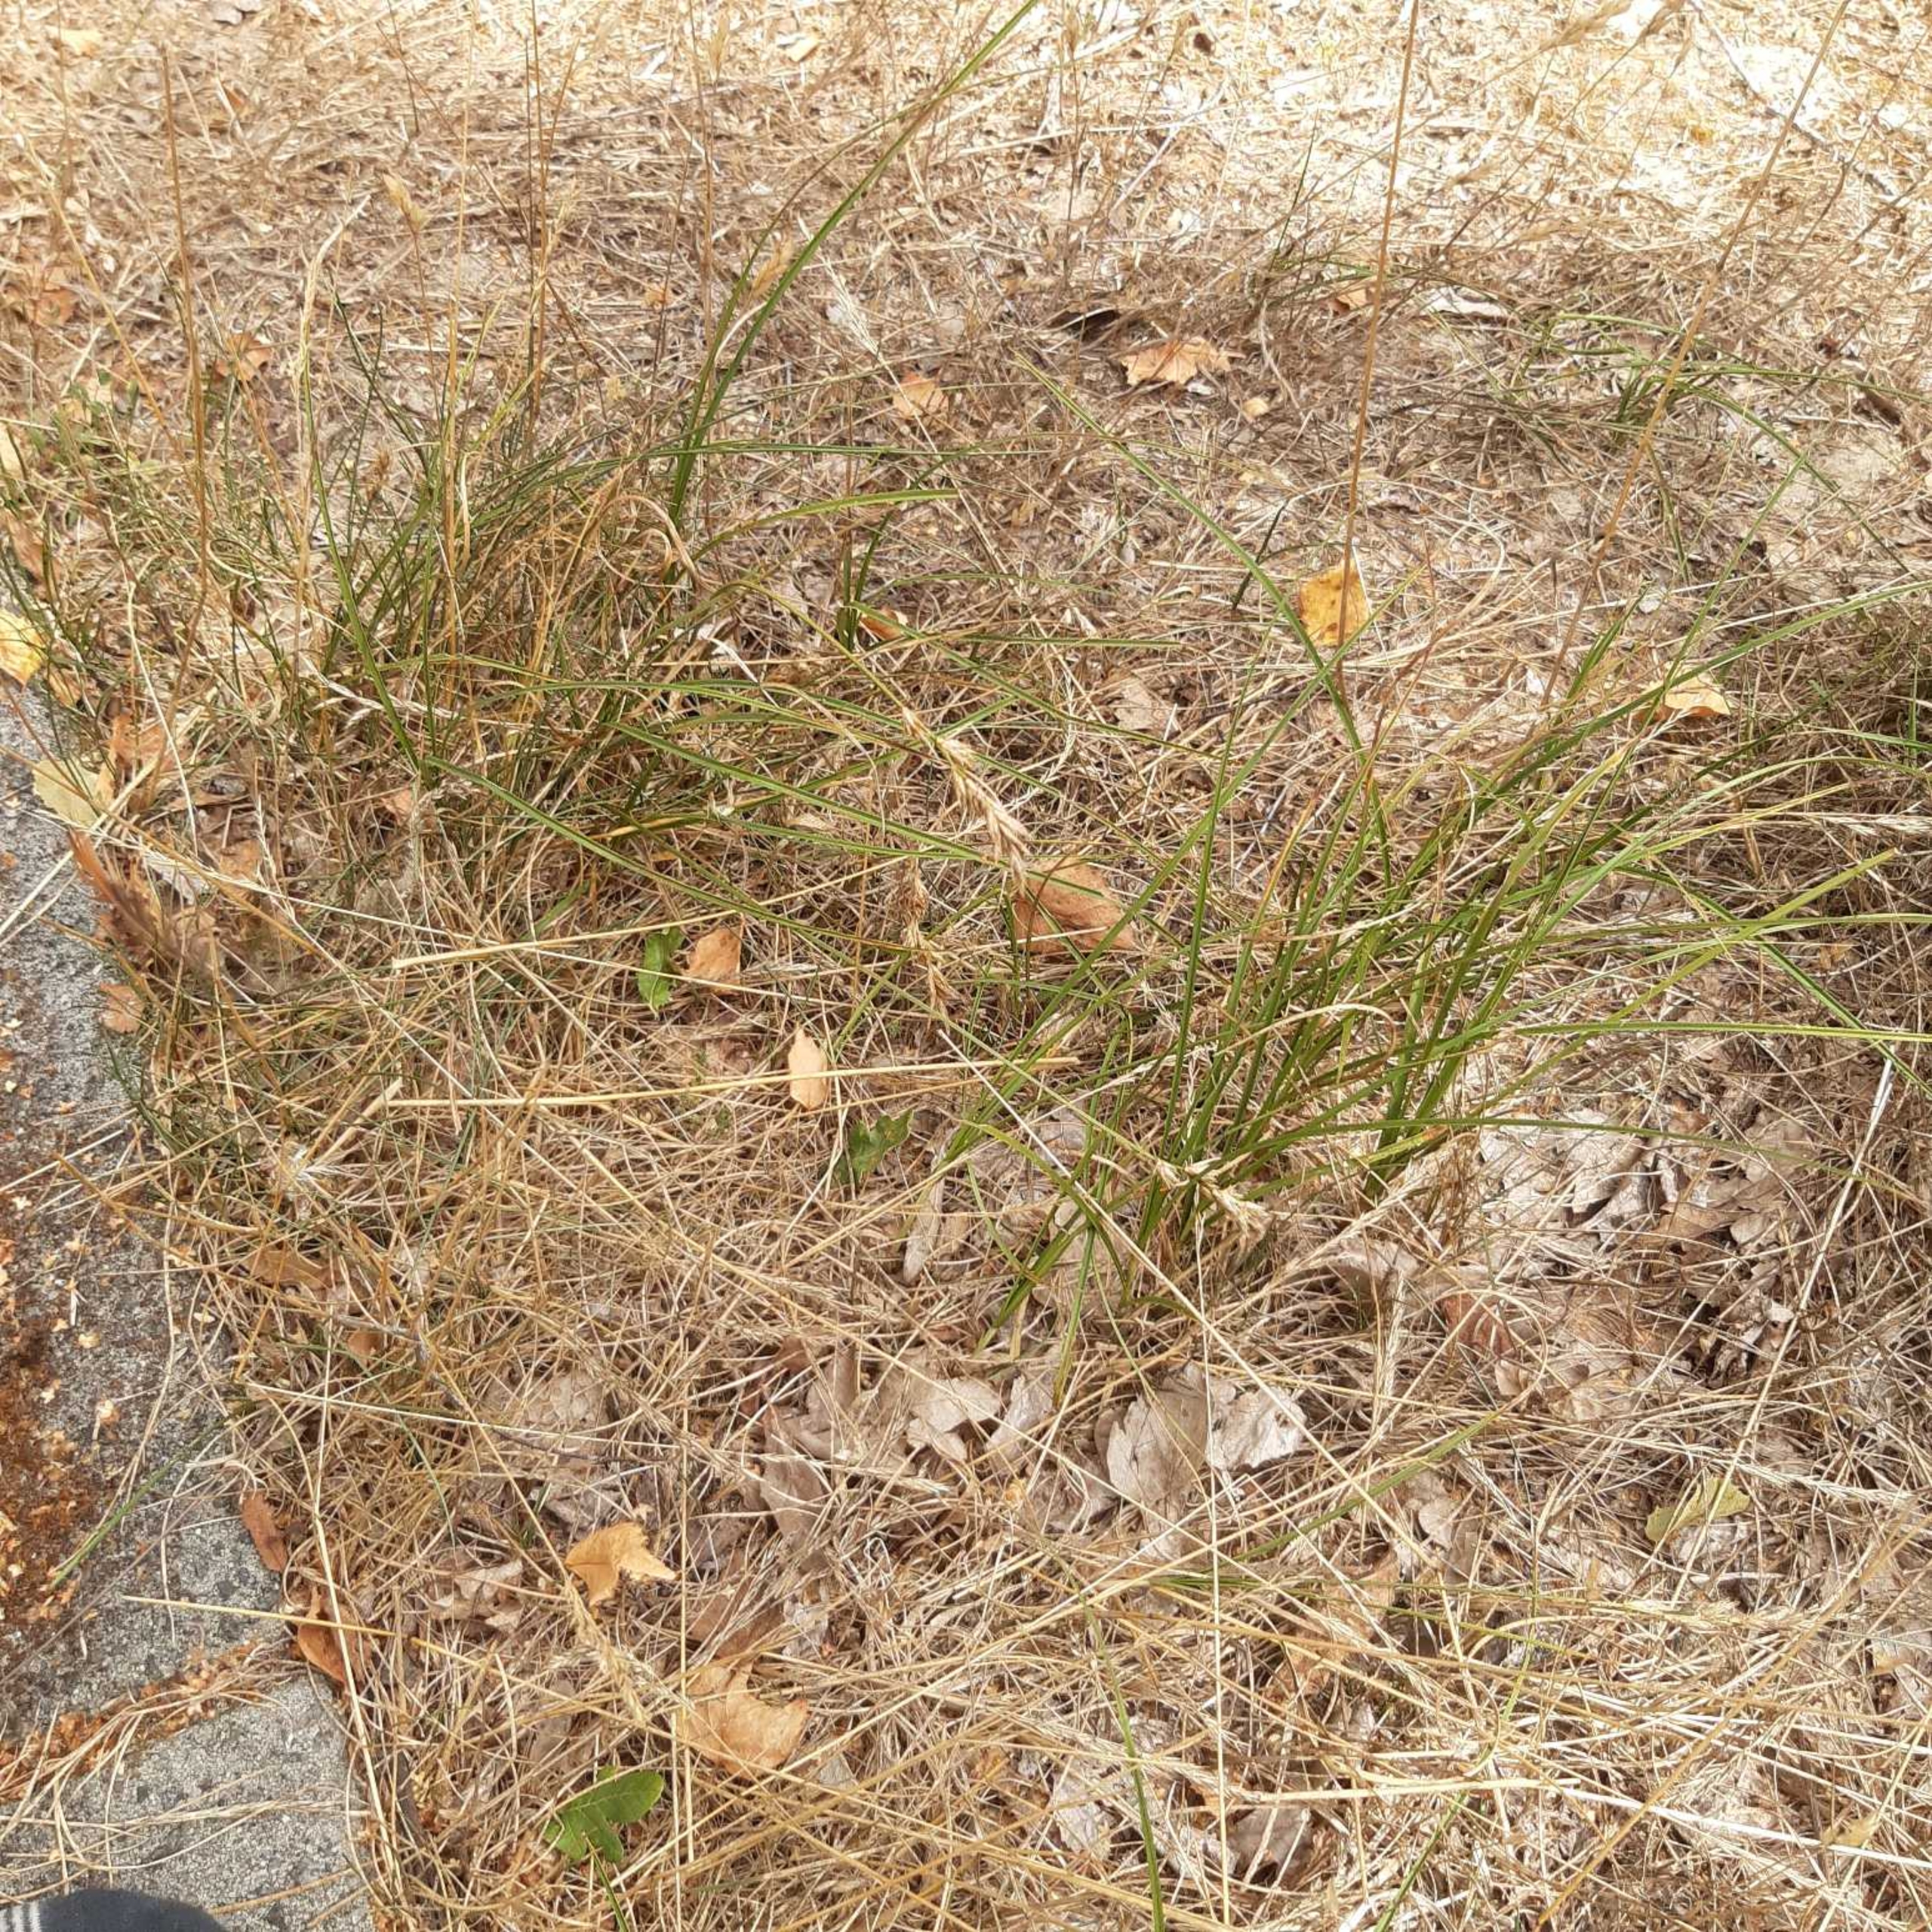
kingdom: Plantae
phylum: Tracheophyta
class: Liliopsida
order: Poales
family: Cyperaceae
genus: Carex
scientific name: Carex arenaria
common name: Sand-star
